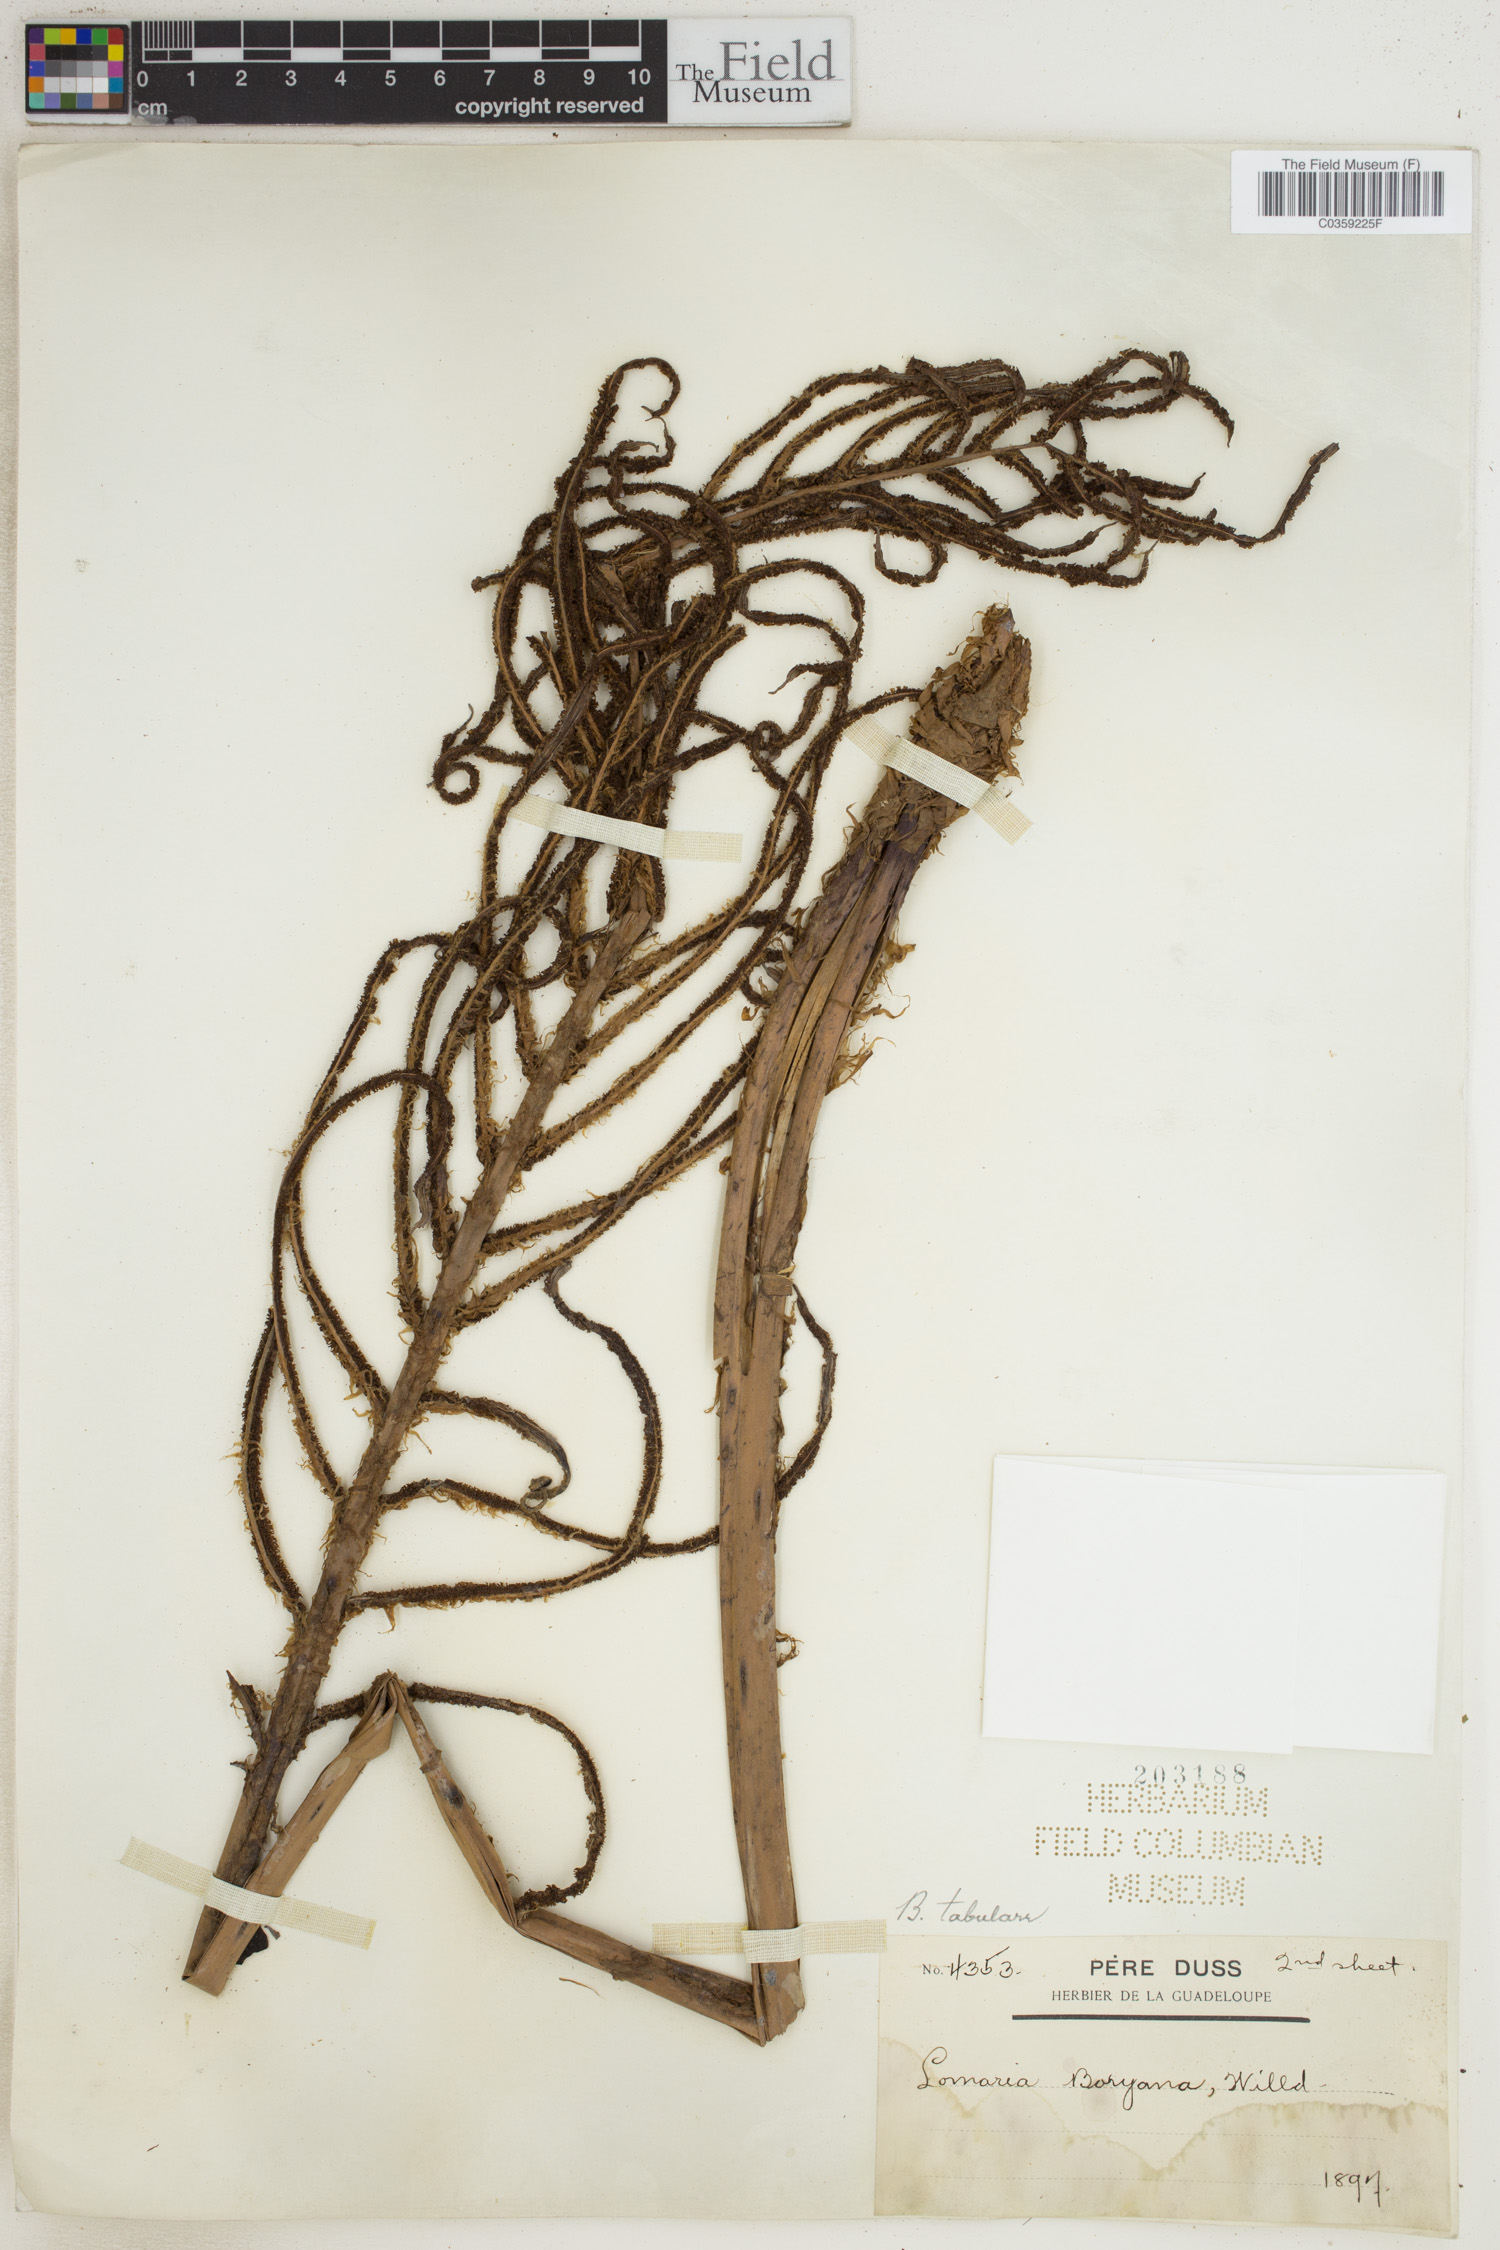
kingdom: Plantae
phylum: Tracheophyta
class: Polypodiopsida
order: Polypodiales
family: Blechnaceae
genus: Lomariocycas
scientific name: Lomariocycas tabularis
